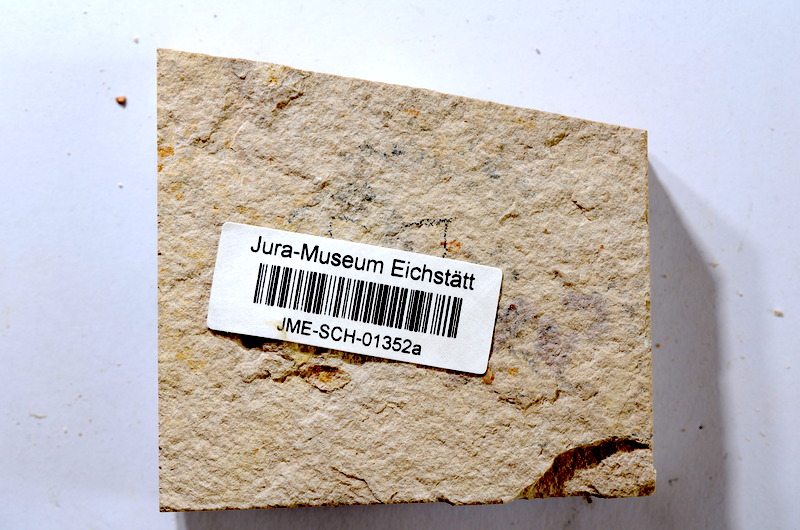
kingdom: Animalia
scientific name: Animalia
